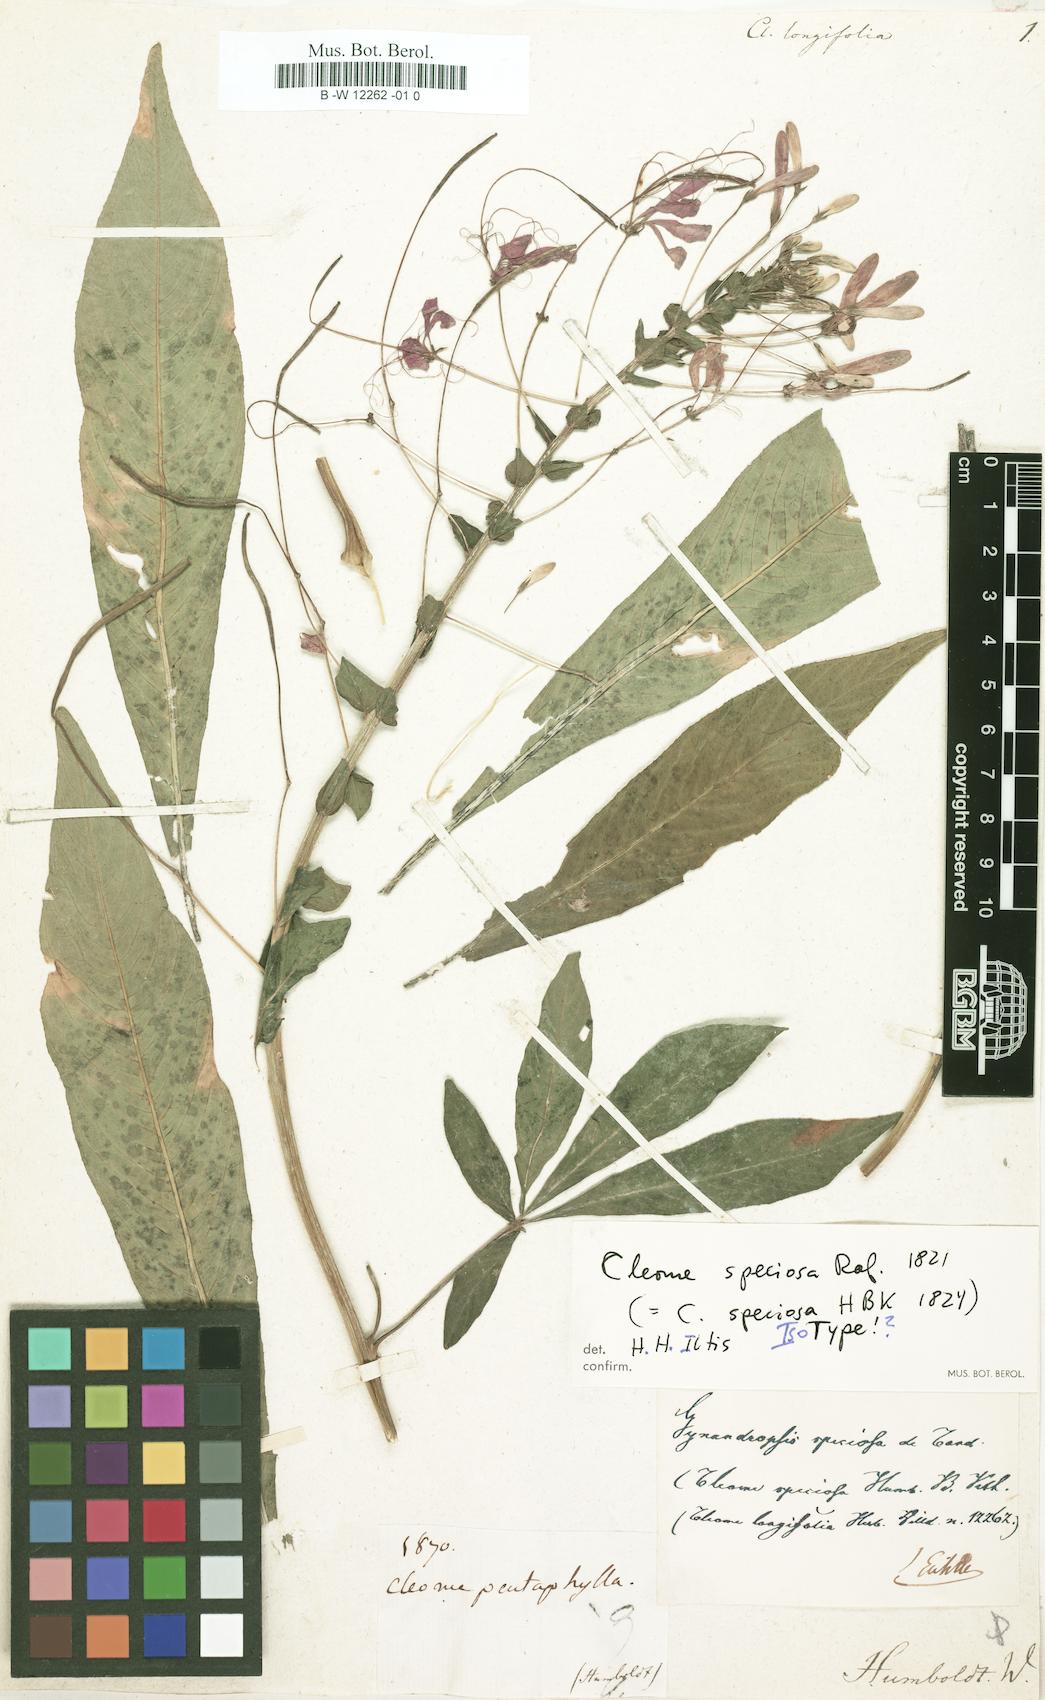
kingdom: Plantae
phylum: Tracheophyta
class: Magnoliopsida
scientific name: Magnoliopsida
